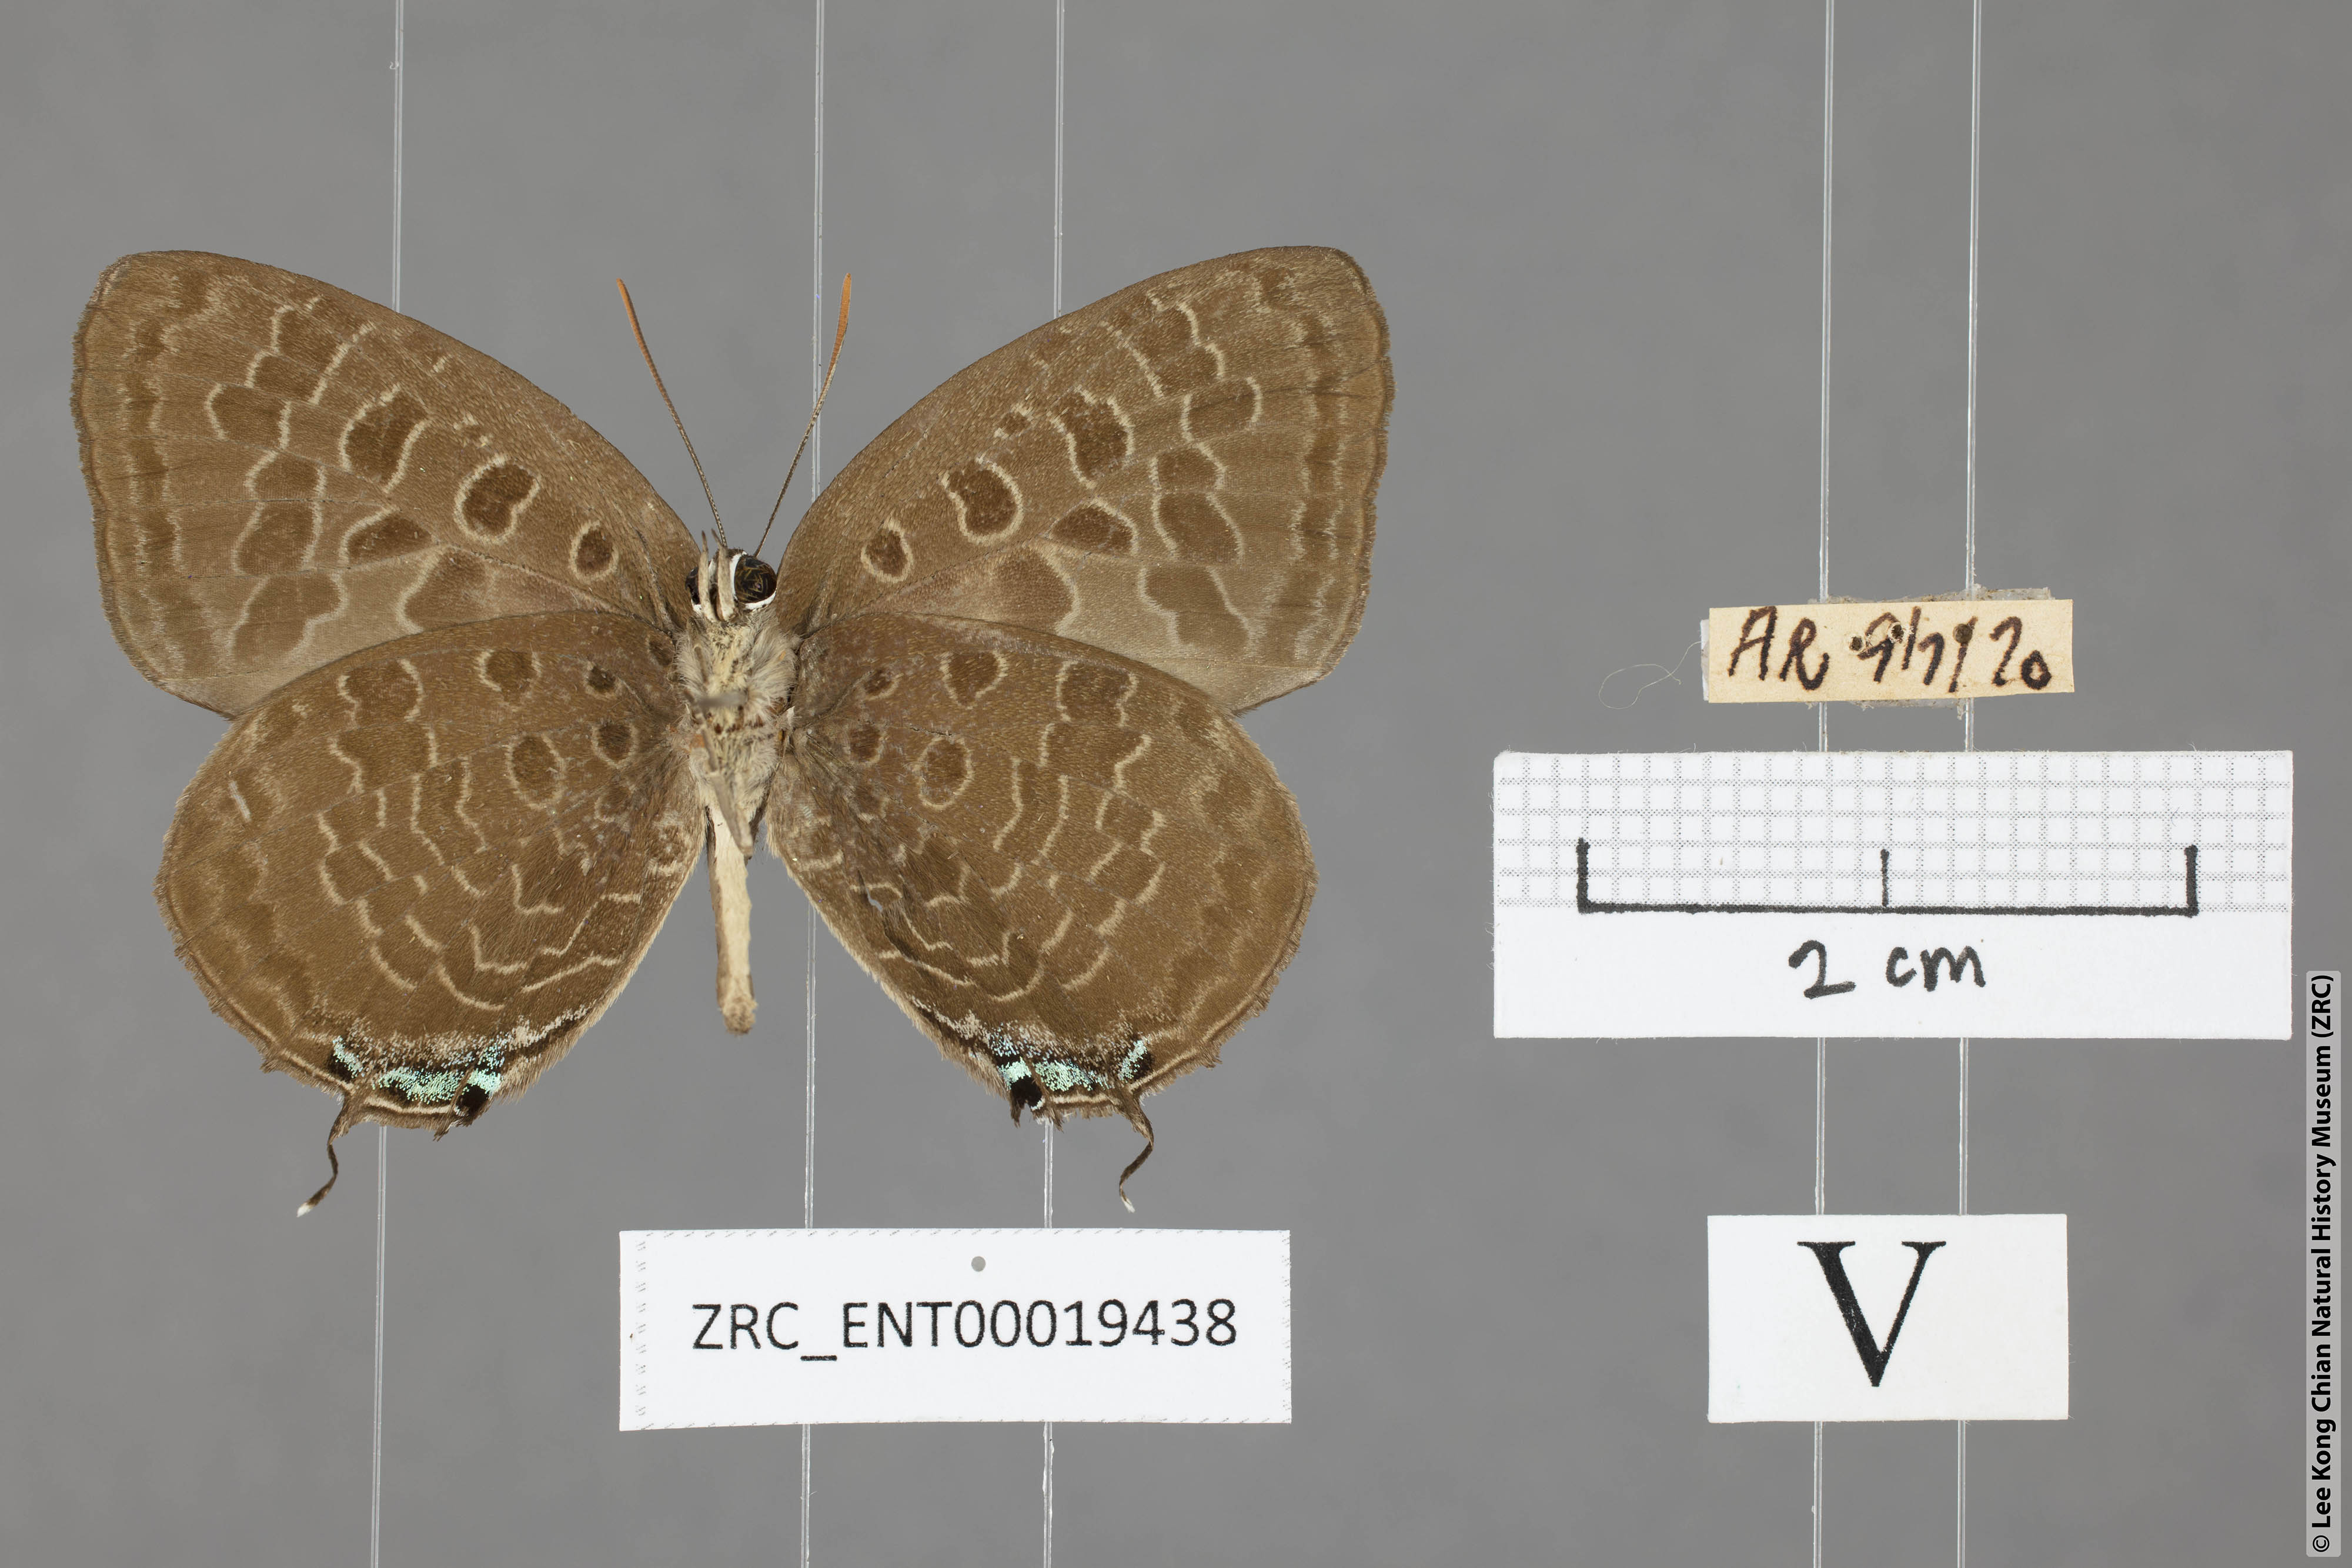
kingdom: Animalia
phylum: Arthropoda
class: Insecta
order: Lepidoptera
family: Lycaenidae
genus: Arhopala
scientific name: Arhopala eumolphus
